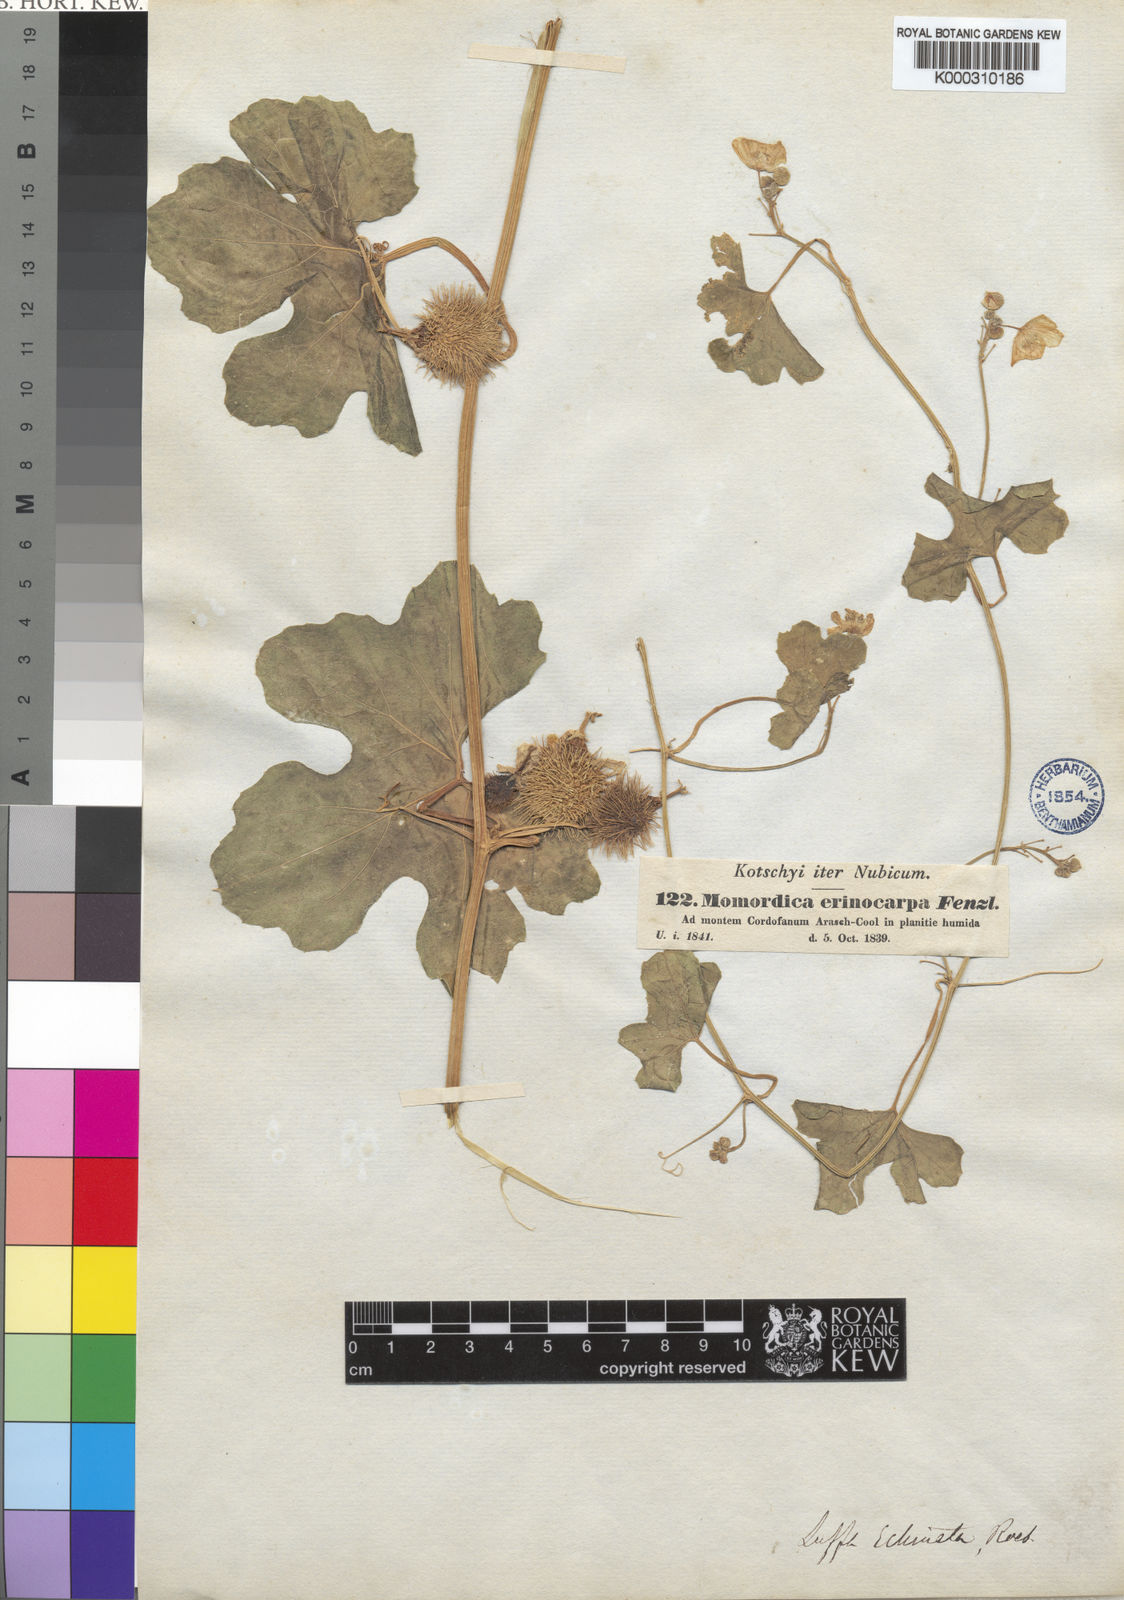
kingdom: Plantae
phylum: Tracheophyta
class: Magnoliopsida
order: Cucurbitales
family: Cucurbitaceae
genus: Luffa
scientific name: Luffa echinata
